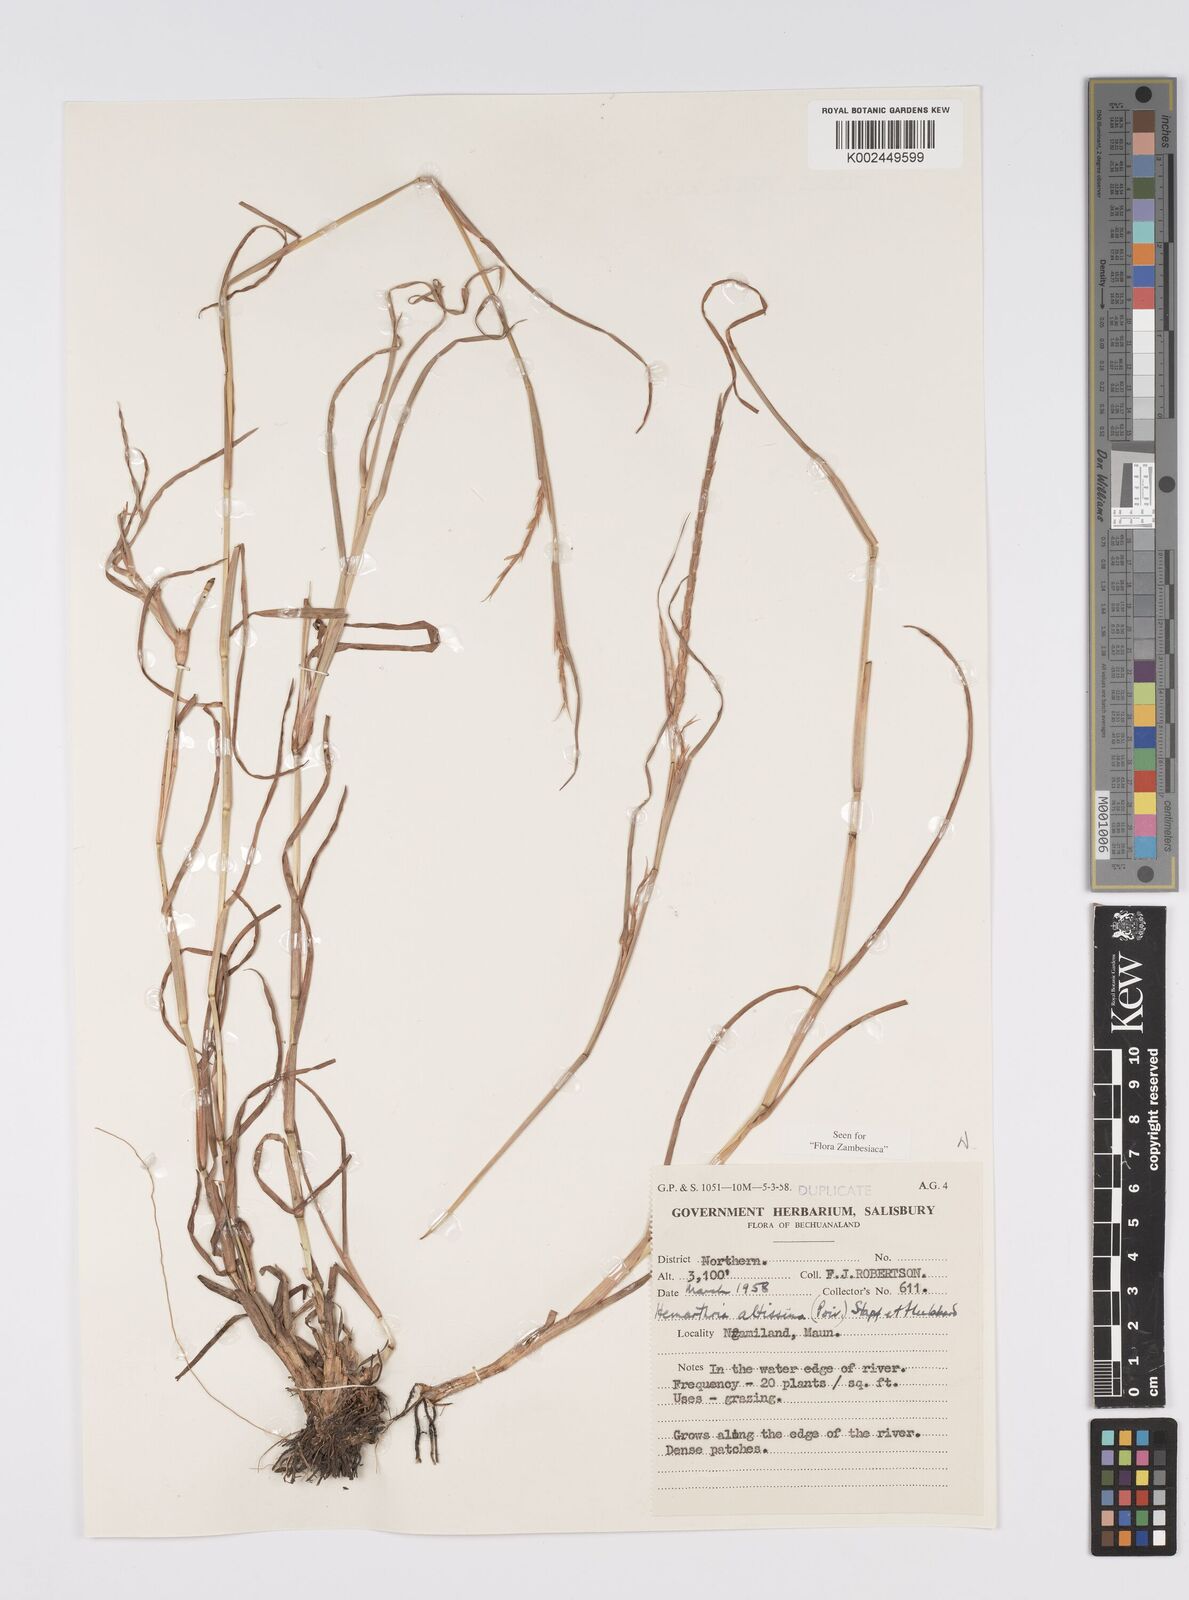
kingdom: Plantae
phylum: Tracheophyta
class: Liliopsida
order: Poales
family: Poaceae
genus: Hemarthria
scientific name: Hemarthria altissima
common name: African jointgrass
